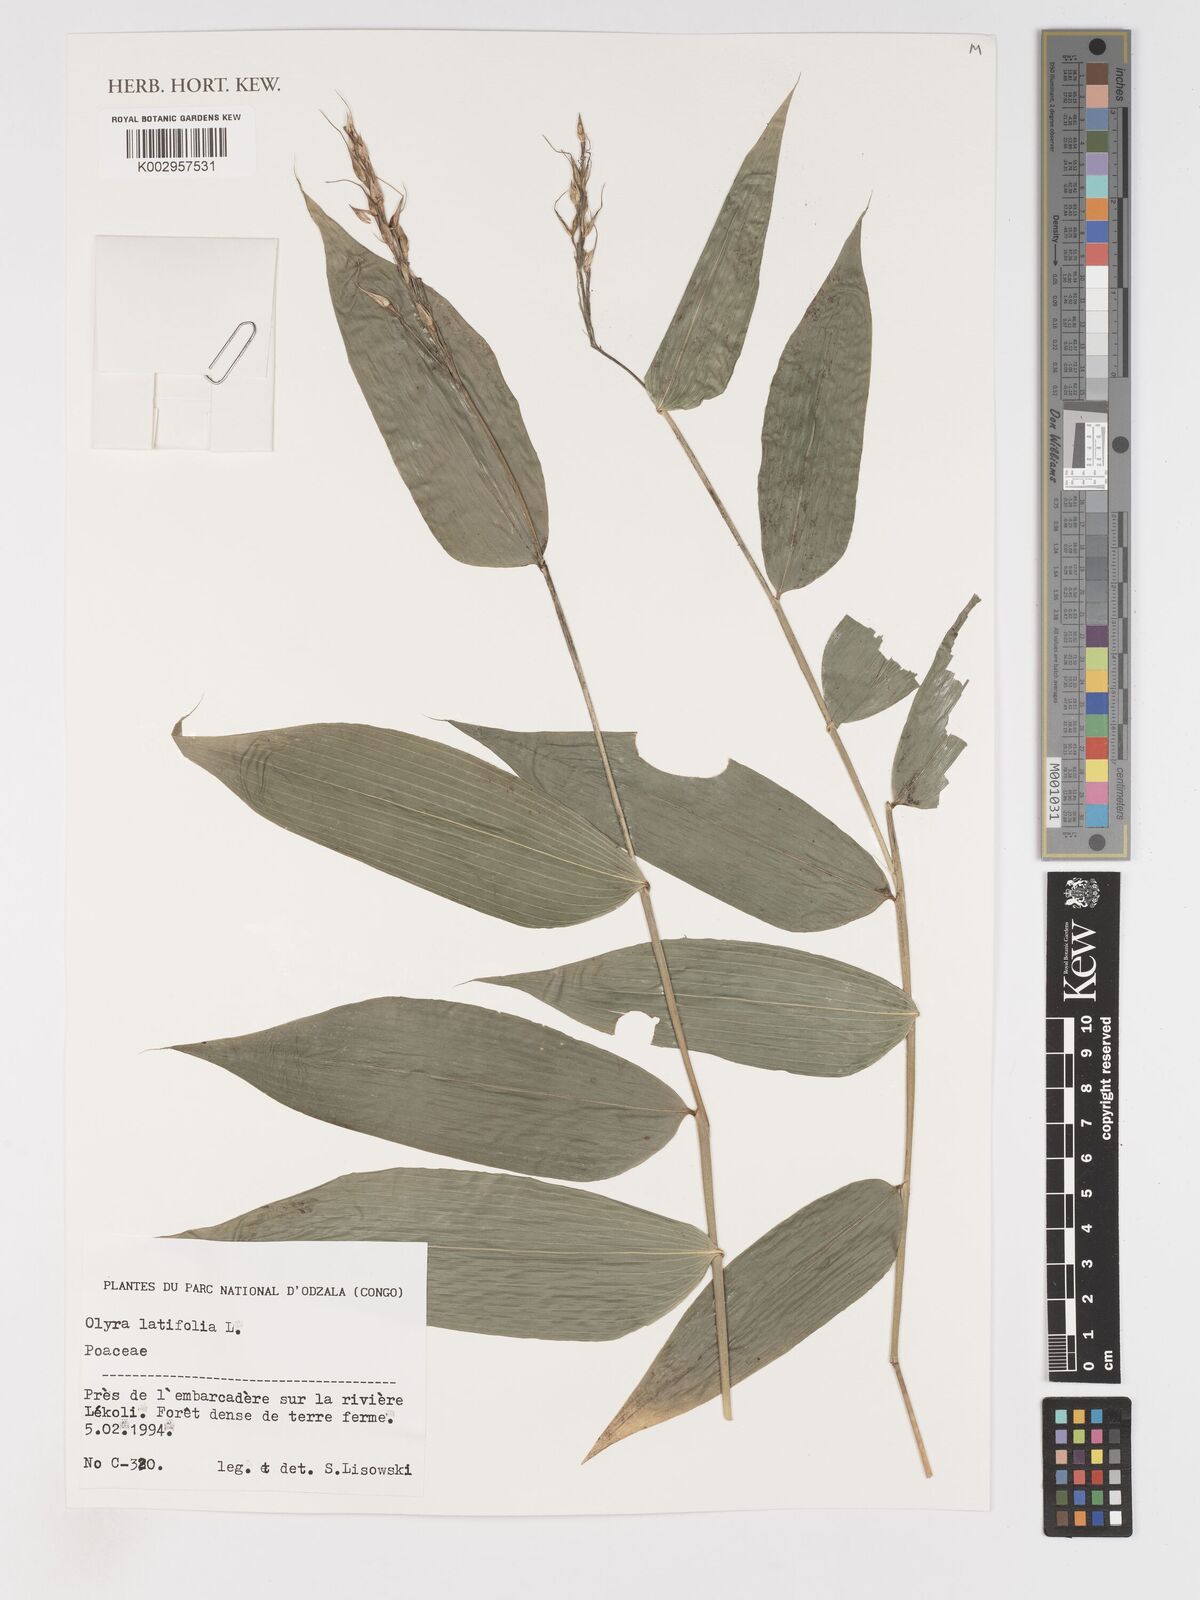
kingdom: Plantae
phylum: Tracheophyta
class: Liliopsida
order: Poales
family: Poaceae
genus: Olyra
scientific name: Olyra latifolia
